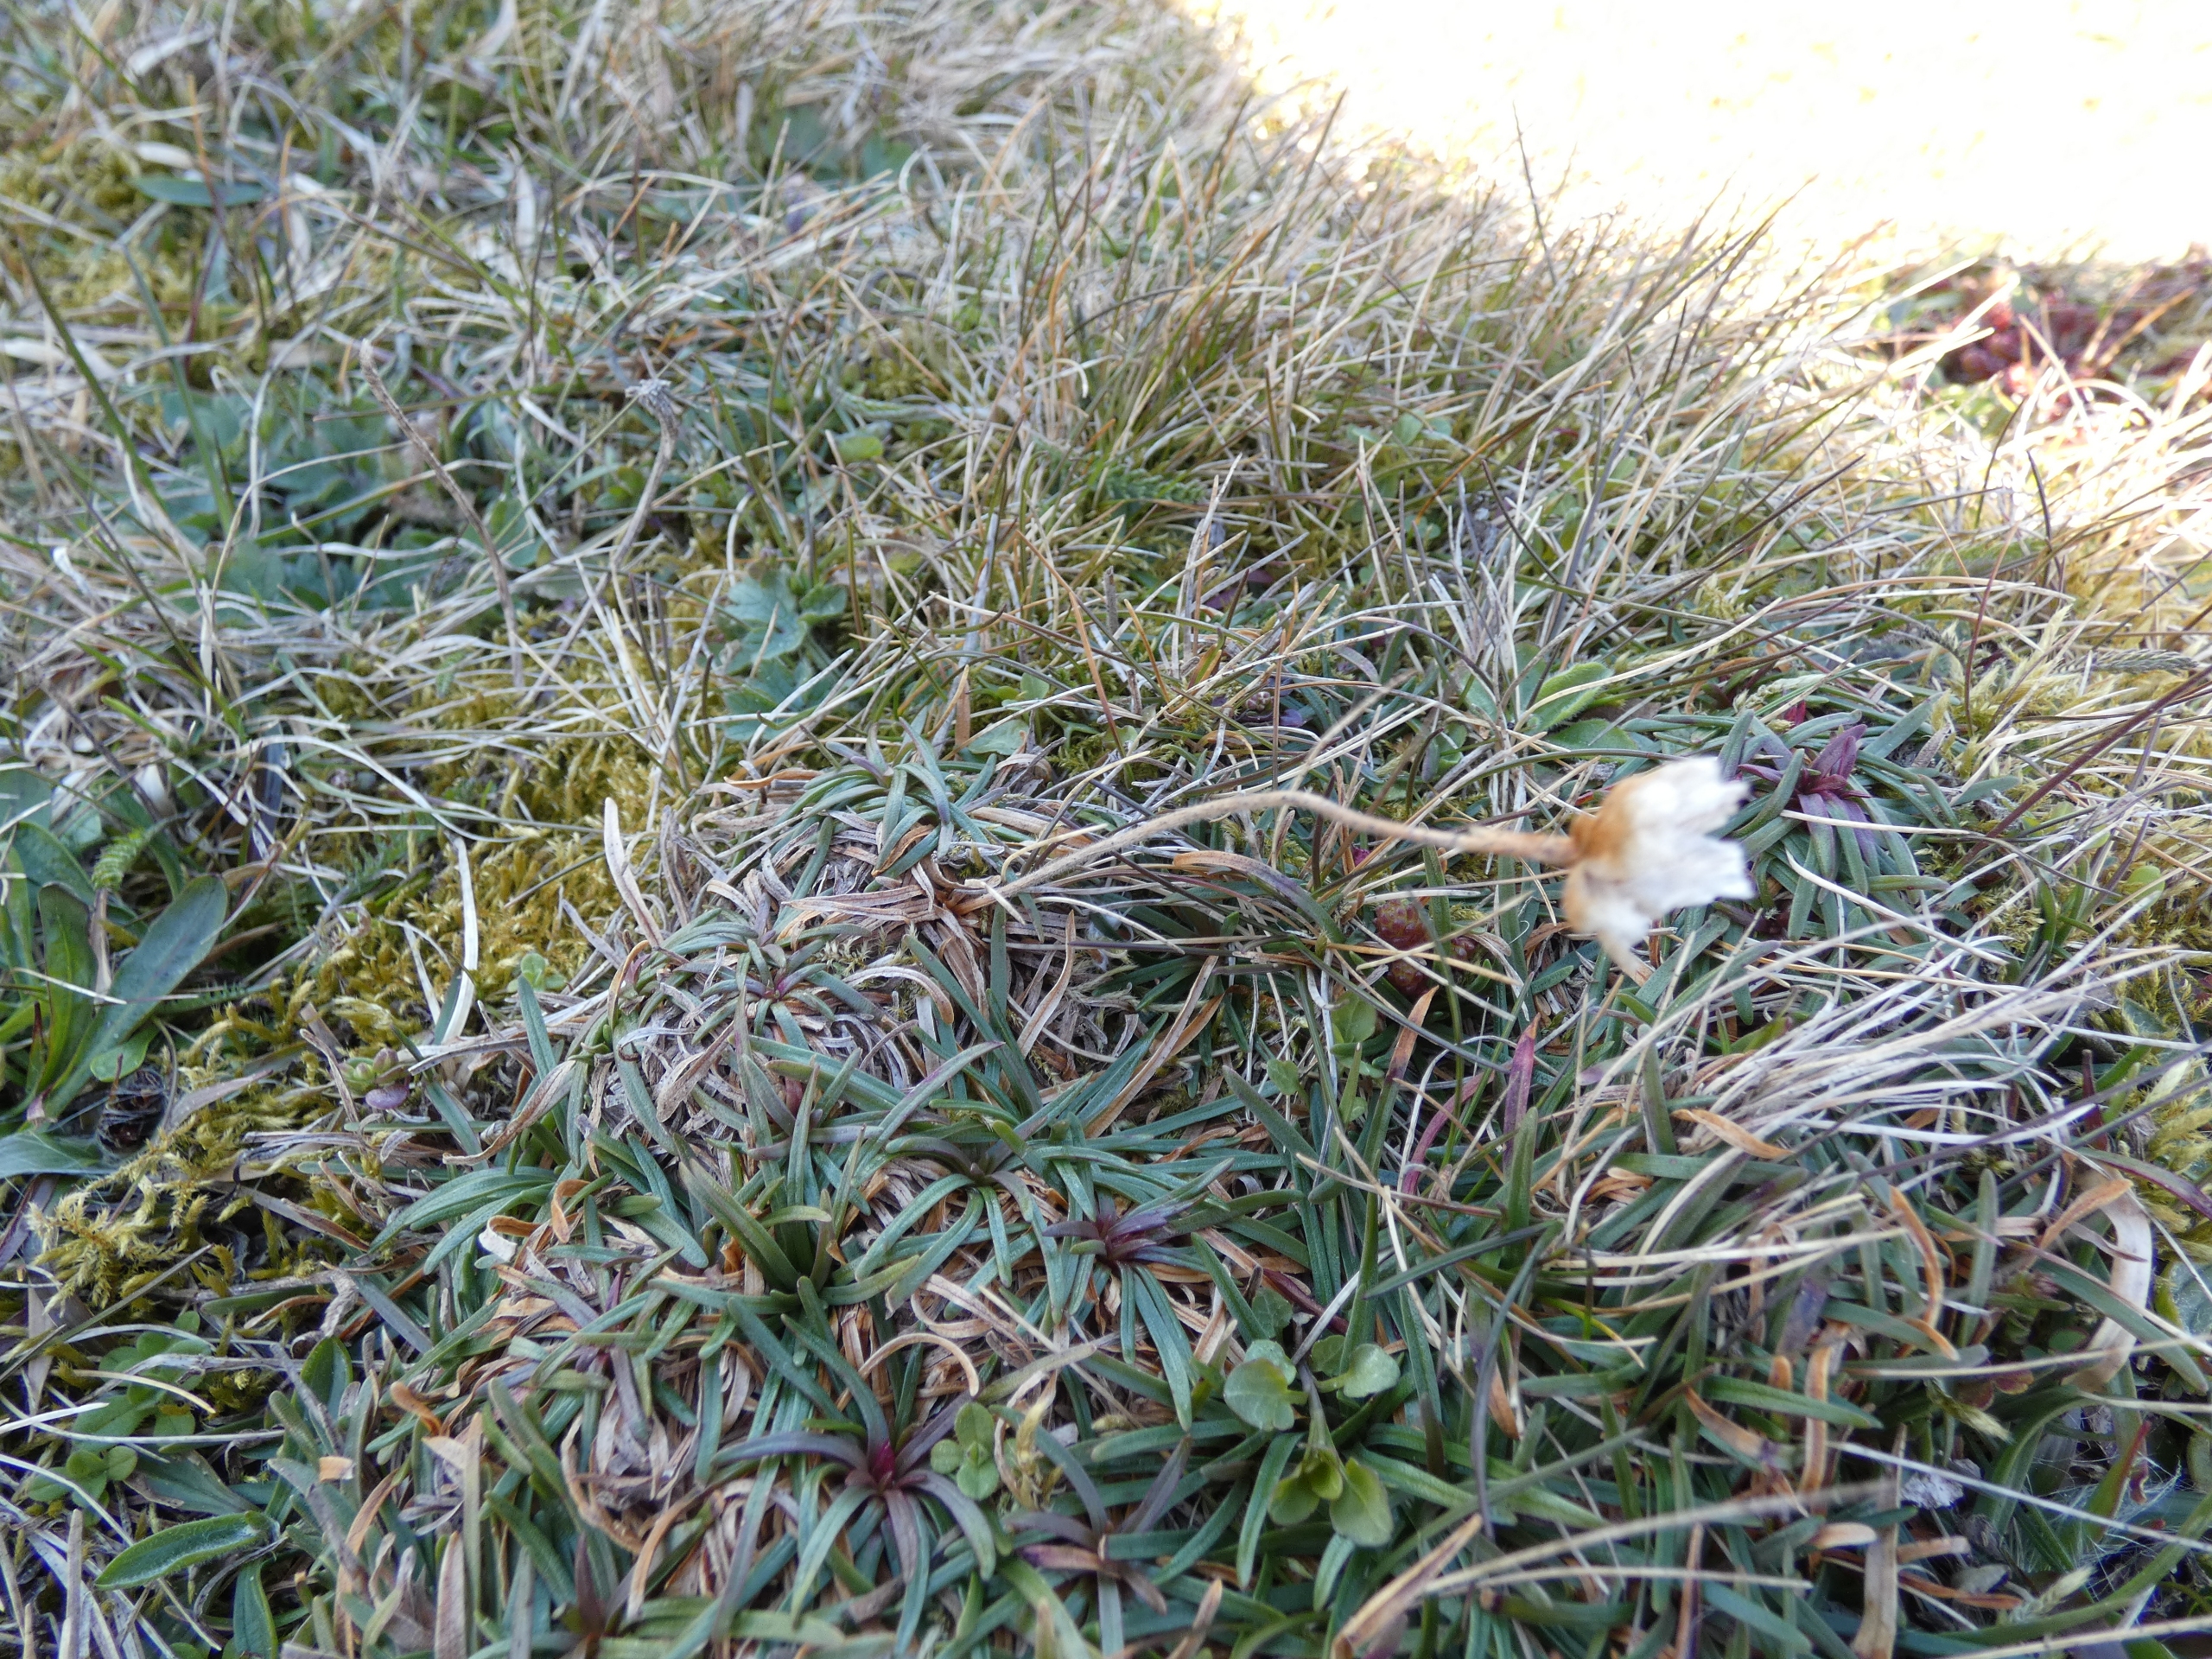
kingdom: Plantae
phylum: Tracheophyta
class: Magnoliopsida
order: Caryophyllales
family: Plumbaginaceae
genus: Armeria
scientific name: Armeria maritima
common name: Engelskgræs
